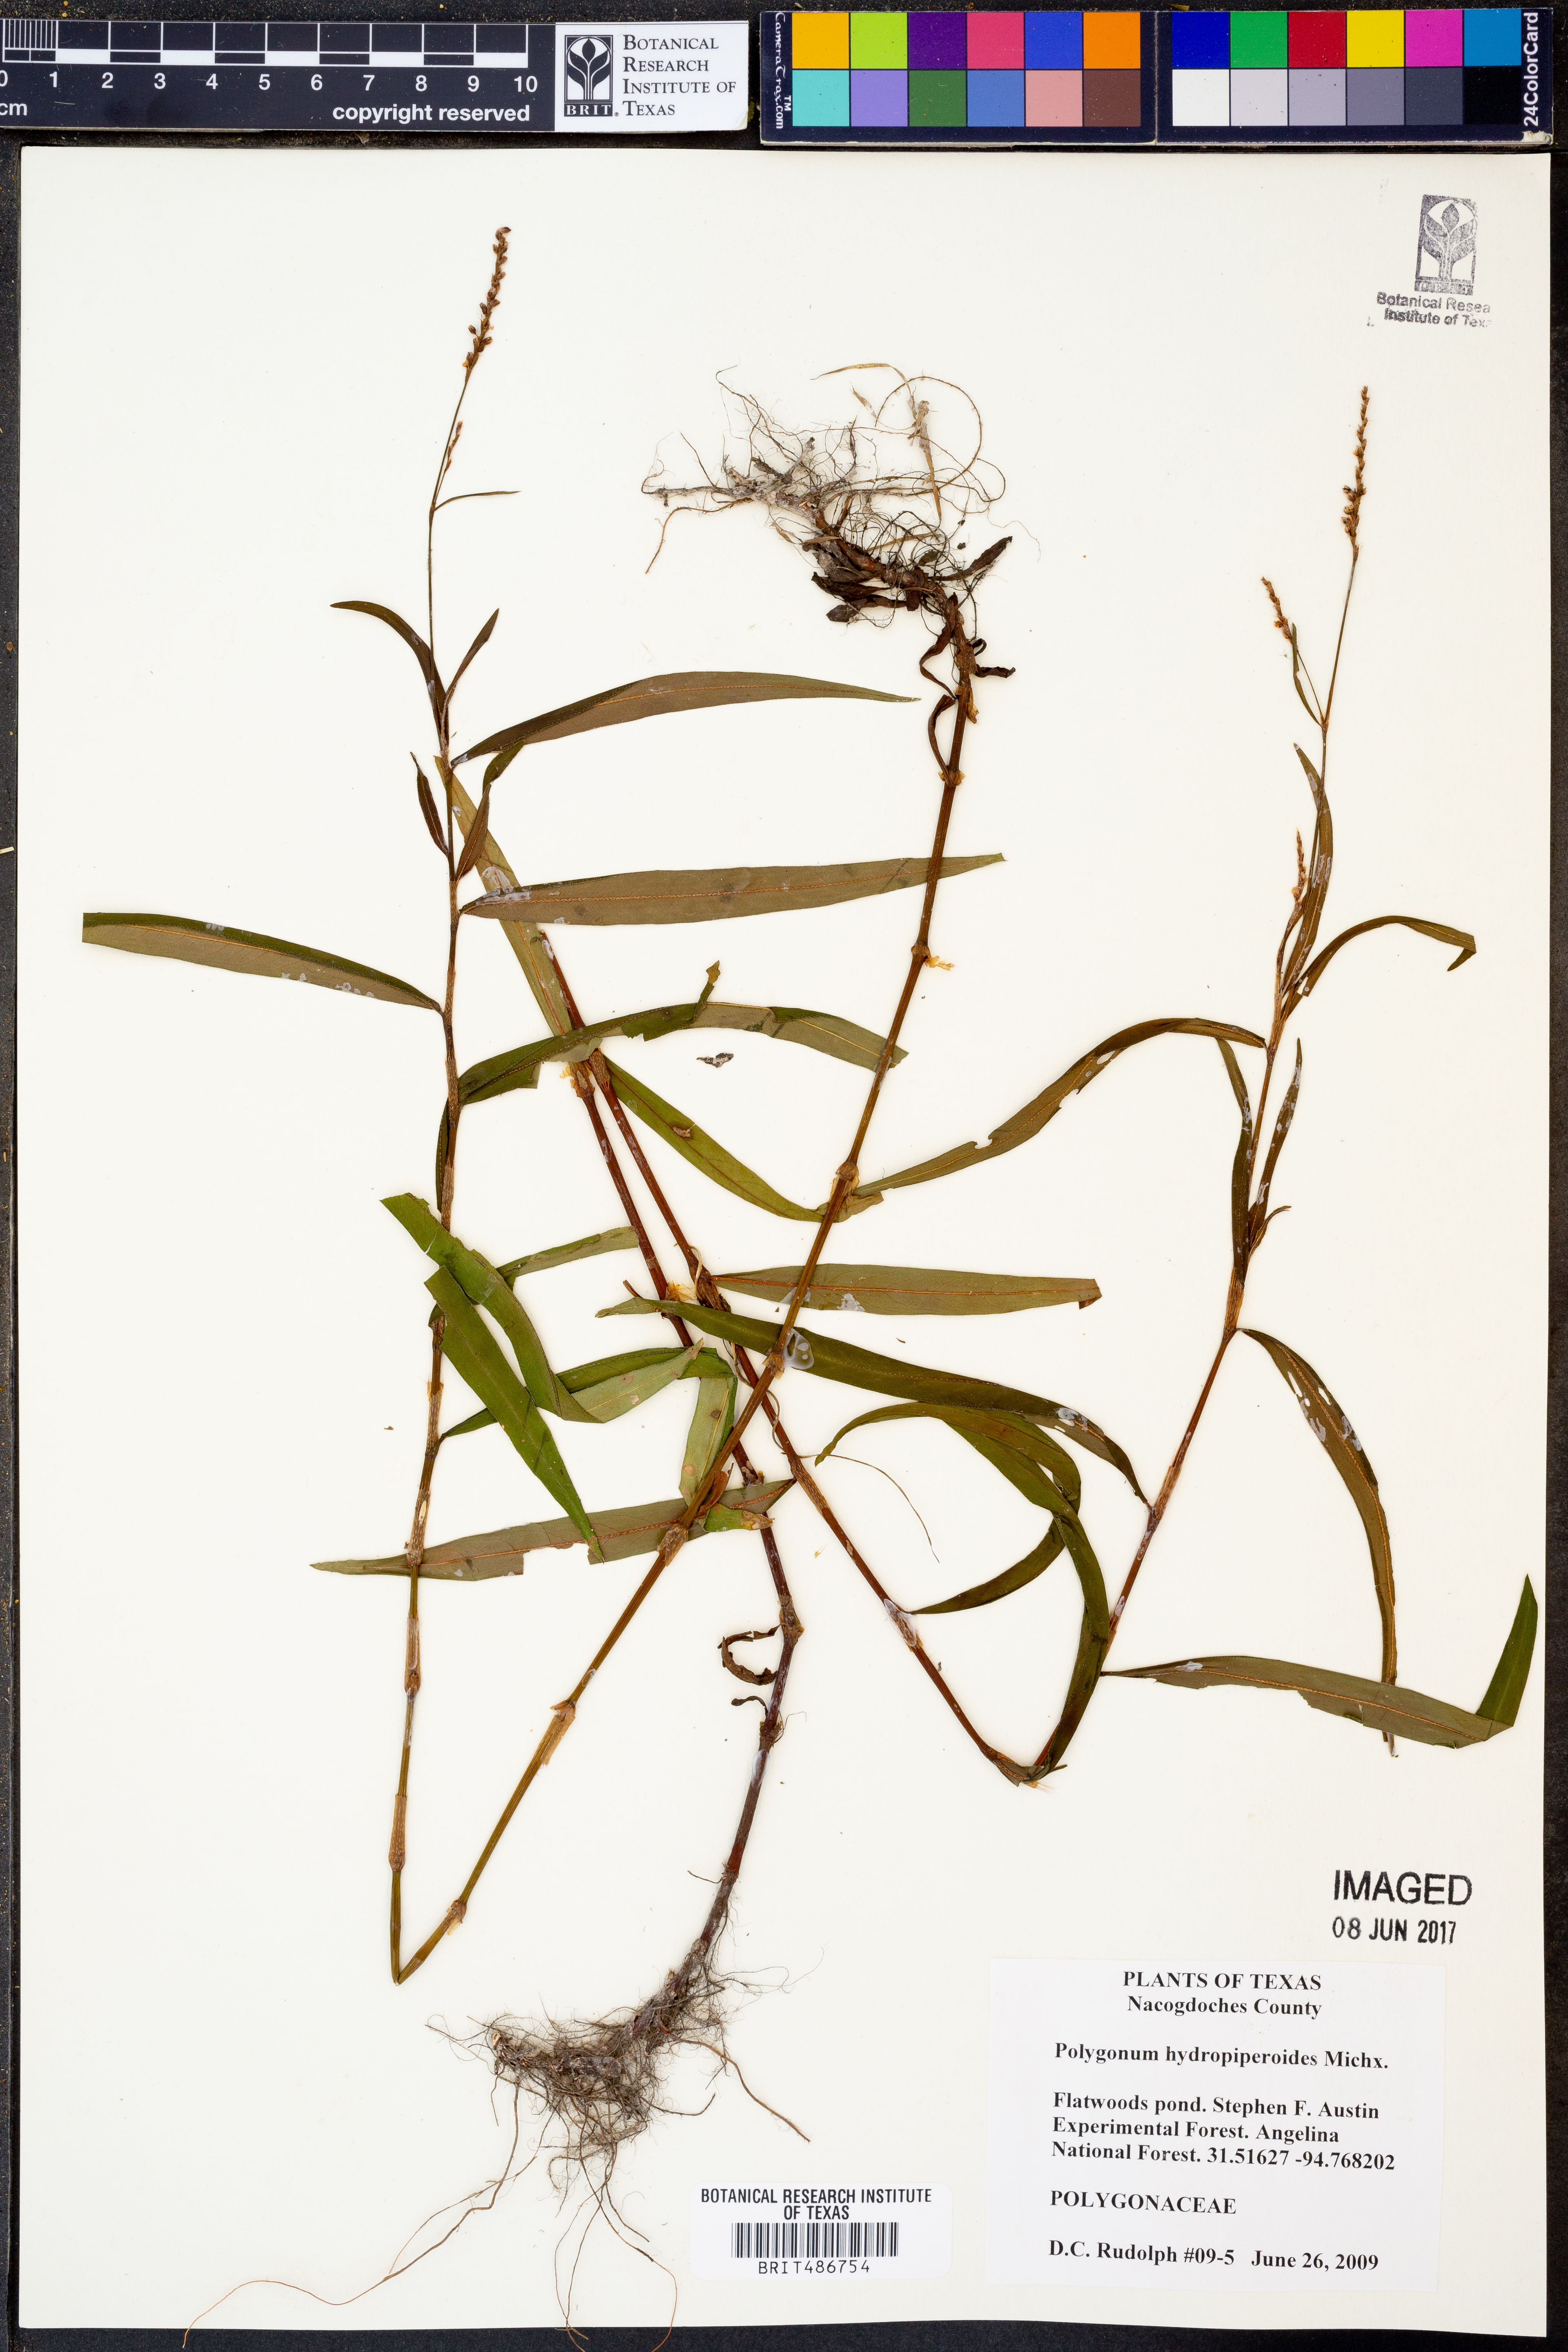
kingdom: Plantae
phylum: Tracheophyta
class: Magnoliopsida
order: Caryophyllales
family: Polygonaceae
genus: Persicaria
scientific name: Persicaria hydropiperoides
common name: Swamp smartweed
